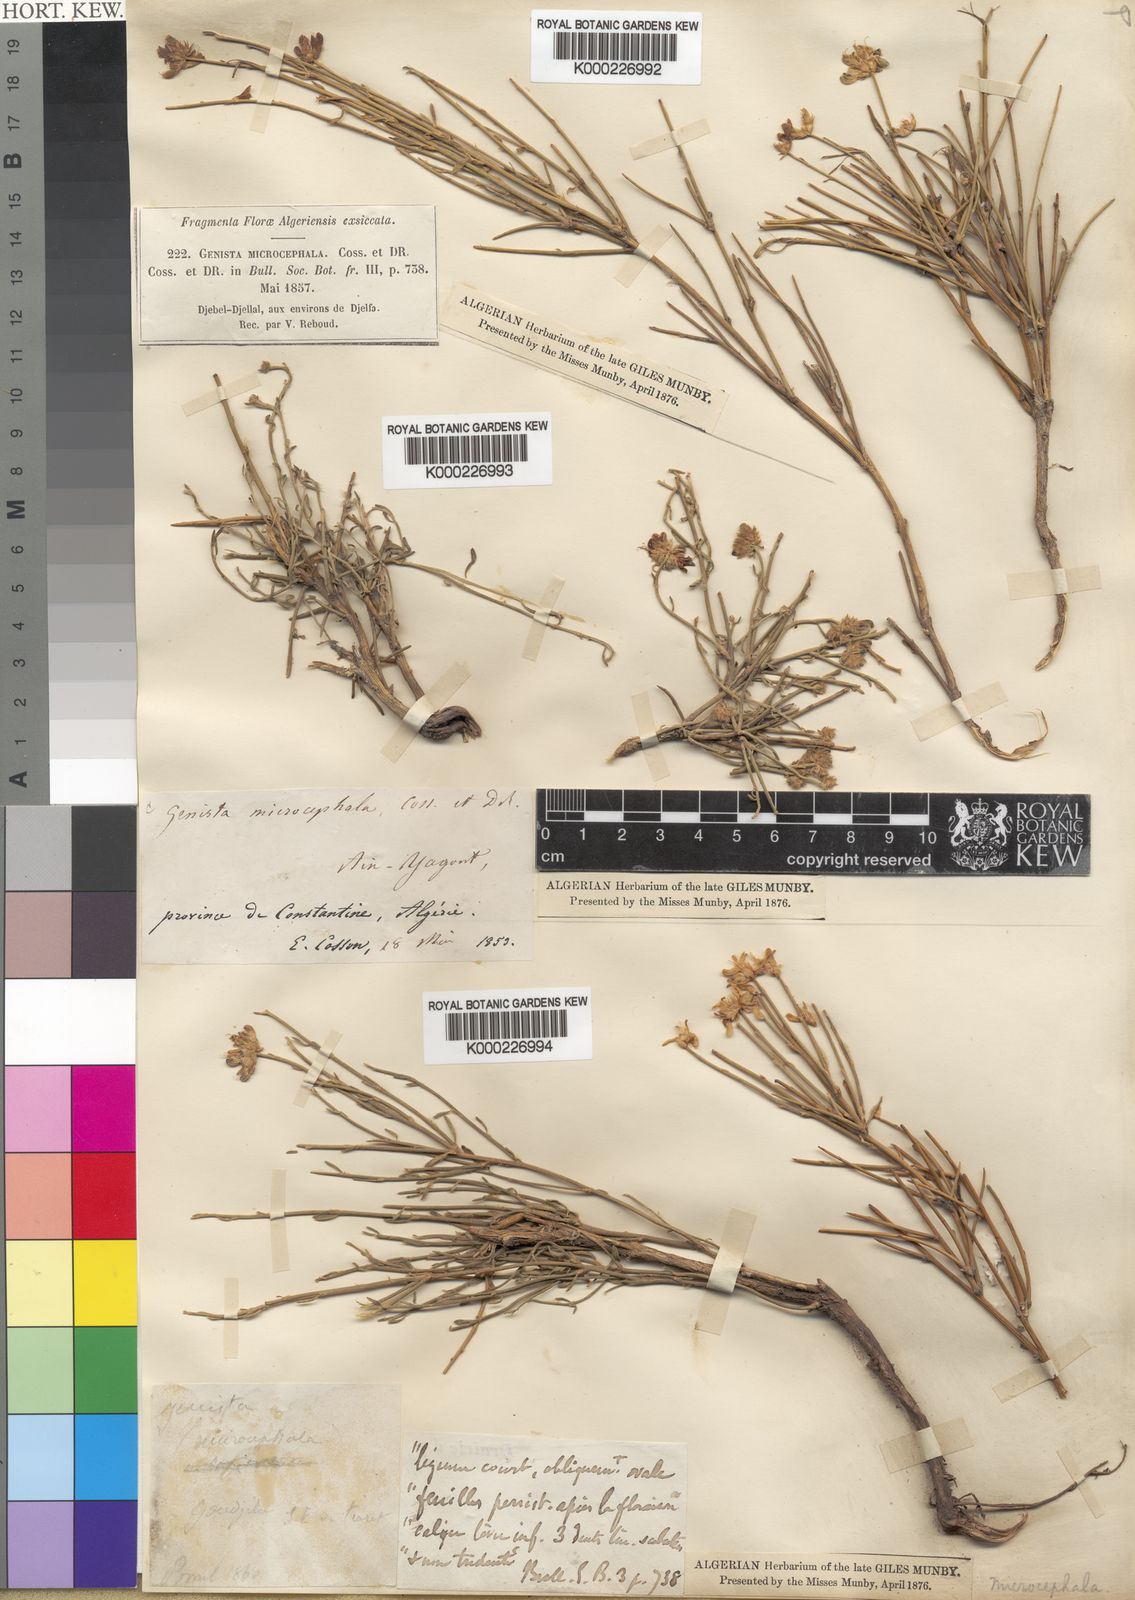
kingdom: Plantae
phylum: Tracheophyta
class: Magnoliopsida
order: Fabales
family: Fabaceae
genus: Genista
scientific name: Genista
